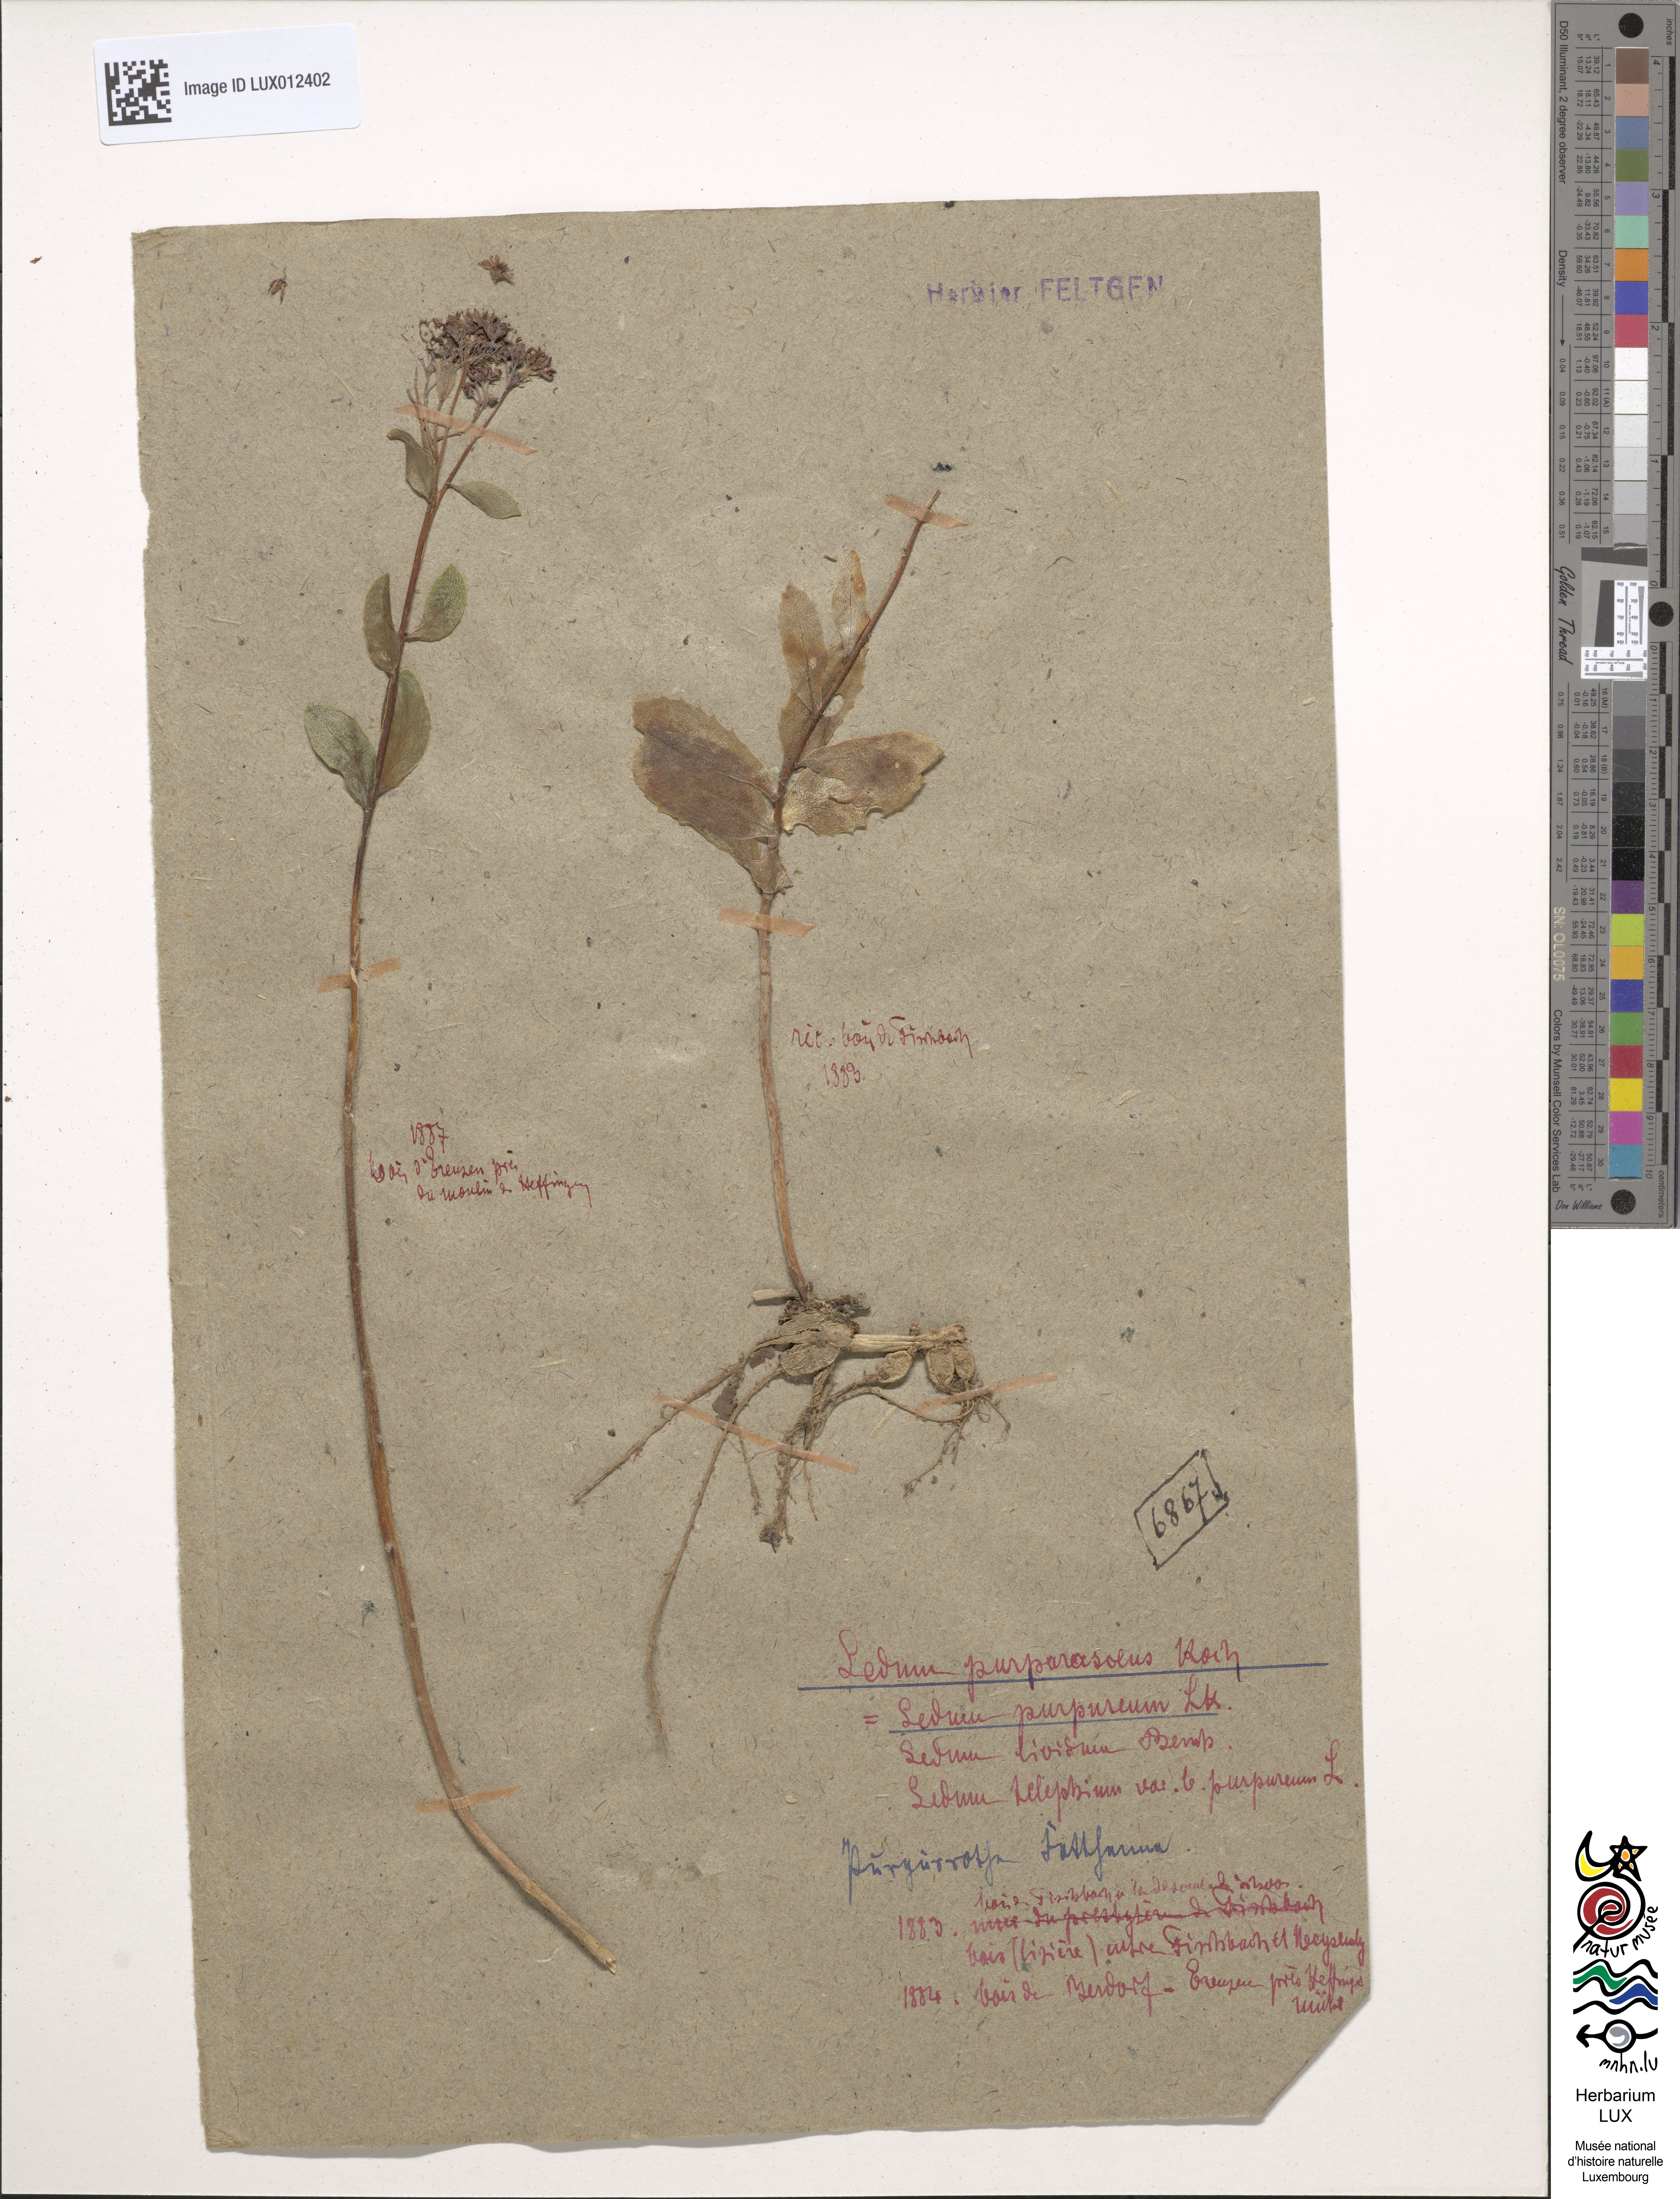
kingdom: Plantae
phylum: Tracheophyta
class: Magnoliopsida
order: Saxifragales
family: Crassulaceae
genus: Hylotelephium
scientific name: Hylotelephium telephium
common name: Live-forever
